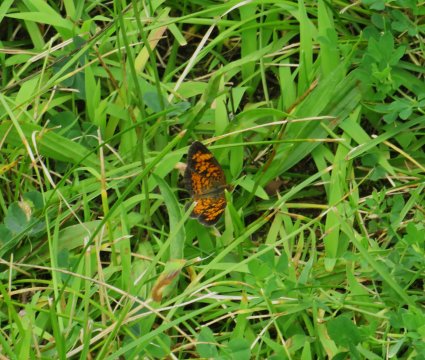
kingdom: Animalia
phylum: Arthropoda
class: Insecta
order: Lepidoptera
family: Nymphalidae
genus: Phyciodes
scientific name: Phyciodes tharos
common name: Pearl Crescent
